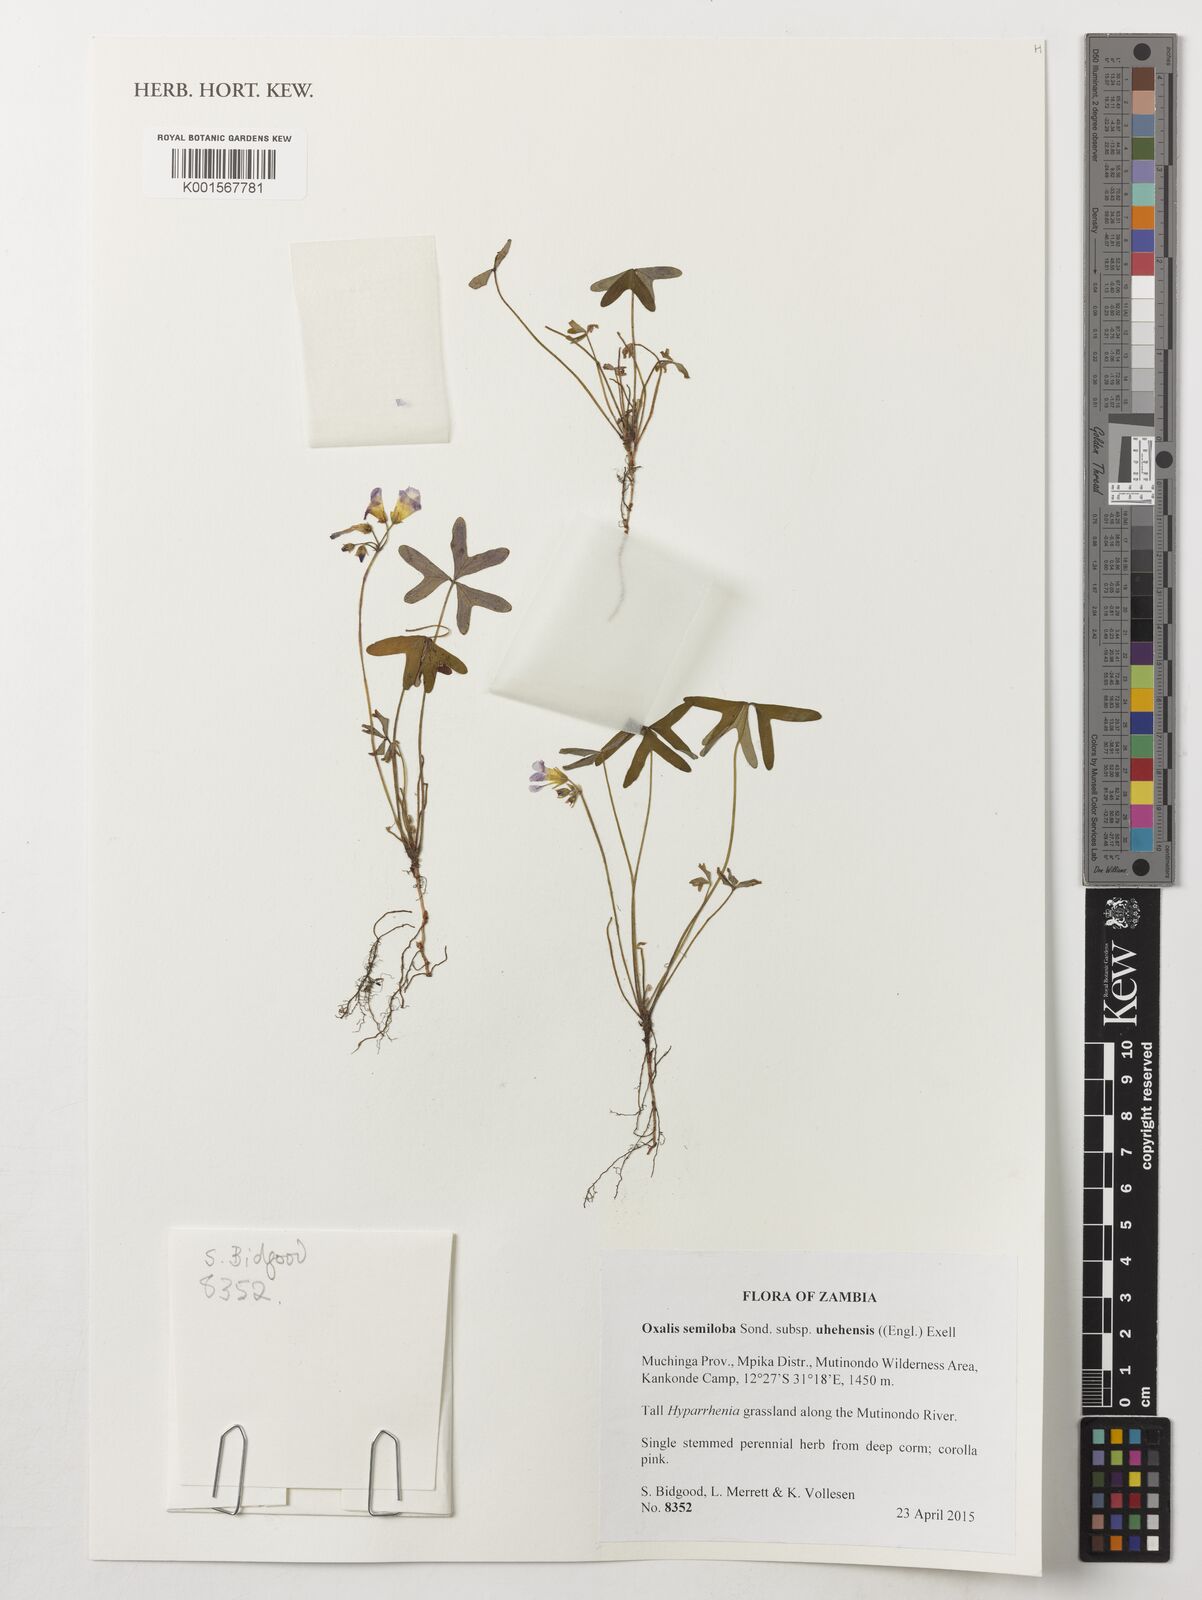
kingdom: Plantae
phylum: Tracheophyta
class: Magnoliopsida
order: Oxalidales
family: Oxalidaceae
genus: Oxalis
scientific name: Oxalis semiloba
